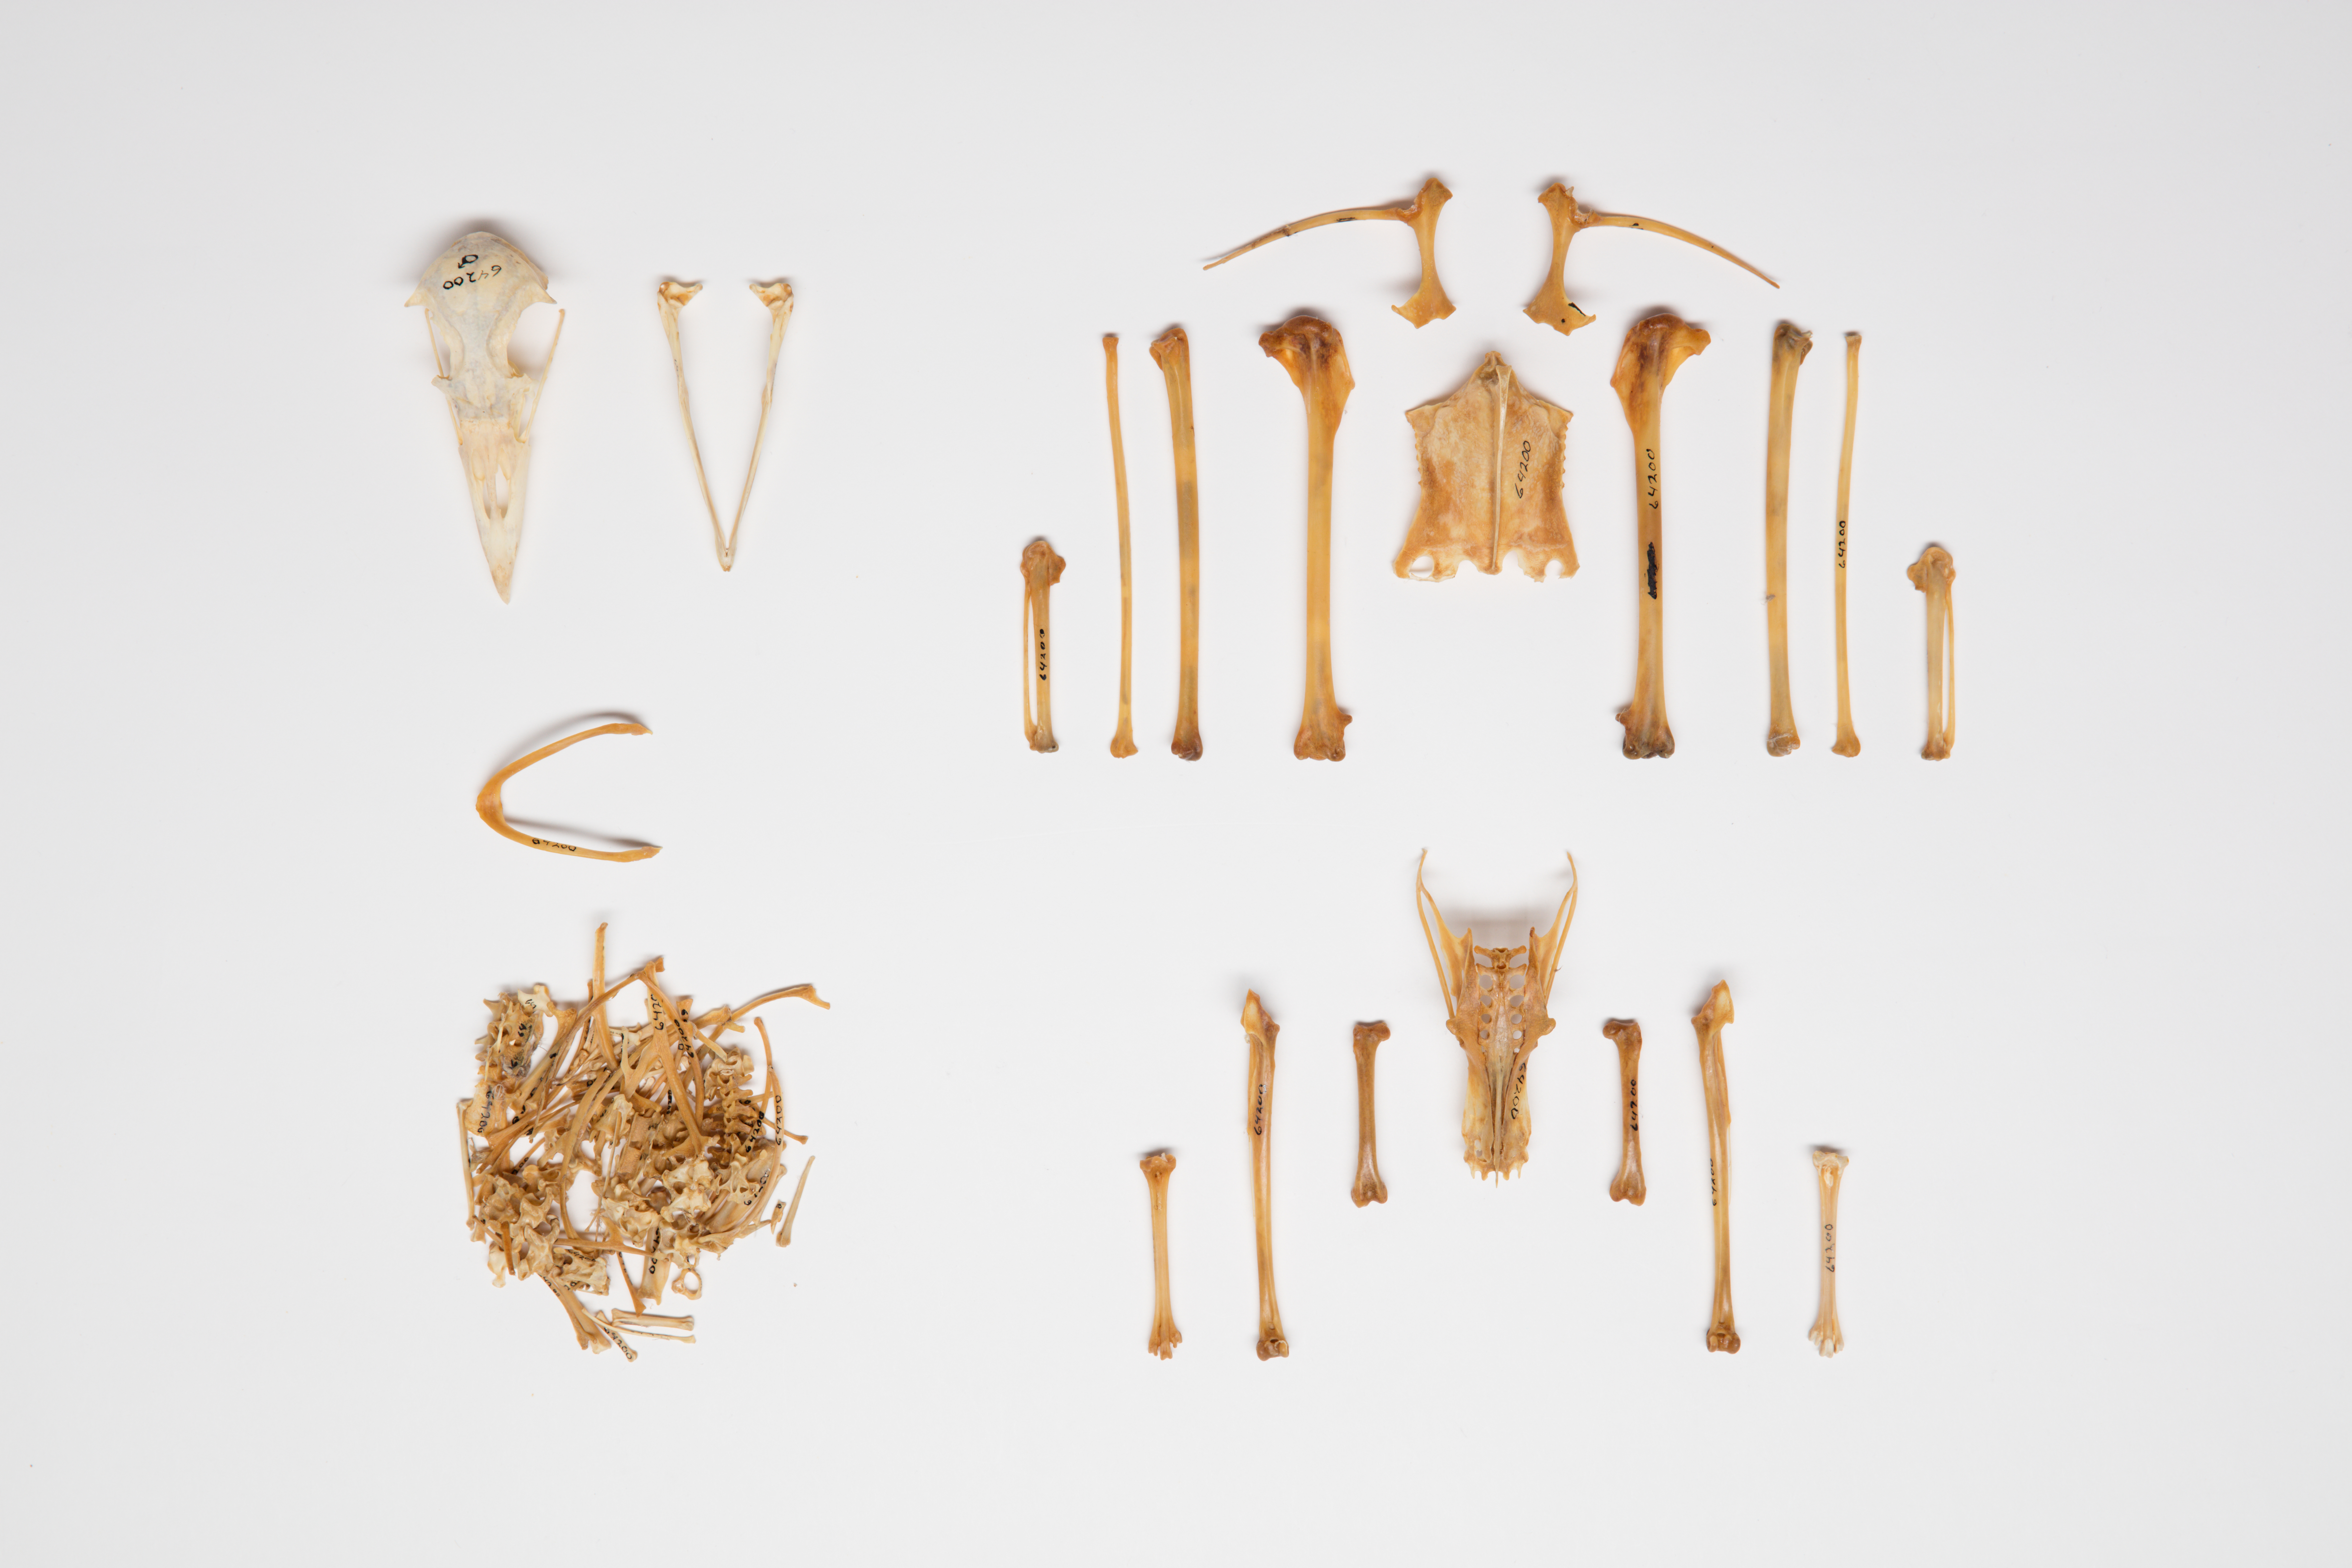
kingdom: Animalia
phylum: Chordata
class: Aves
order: Procellariiformes
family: Procellariidae
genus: Fulmarus
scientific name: Fulmarus glacialis
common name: Northern fulmar
